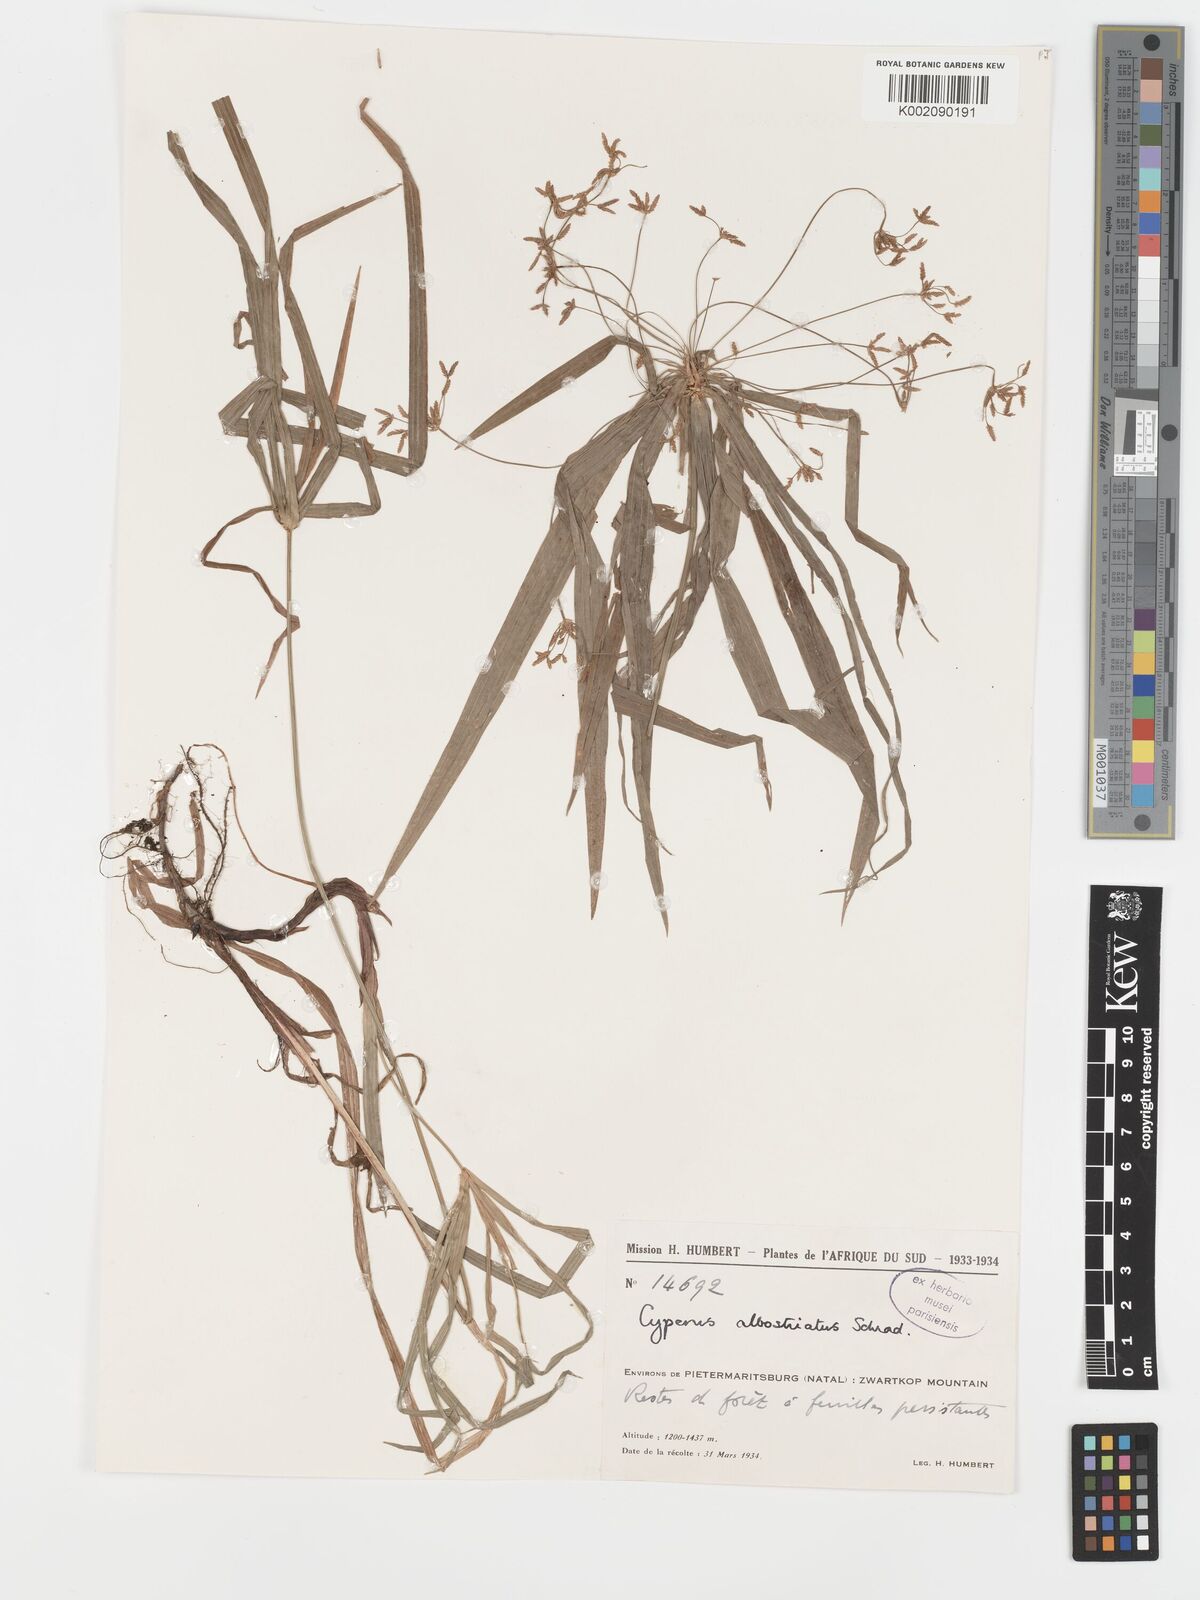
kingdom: Plantae
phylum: Tracheophyta
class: Liliopsida
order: Poales
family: Cyperaceae
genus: Cyperus
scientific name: Cyperus albostriatus
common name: Dwarf umbrella-grass
